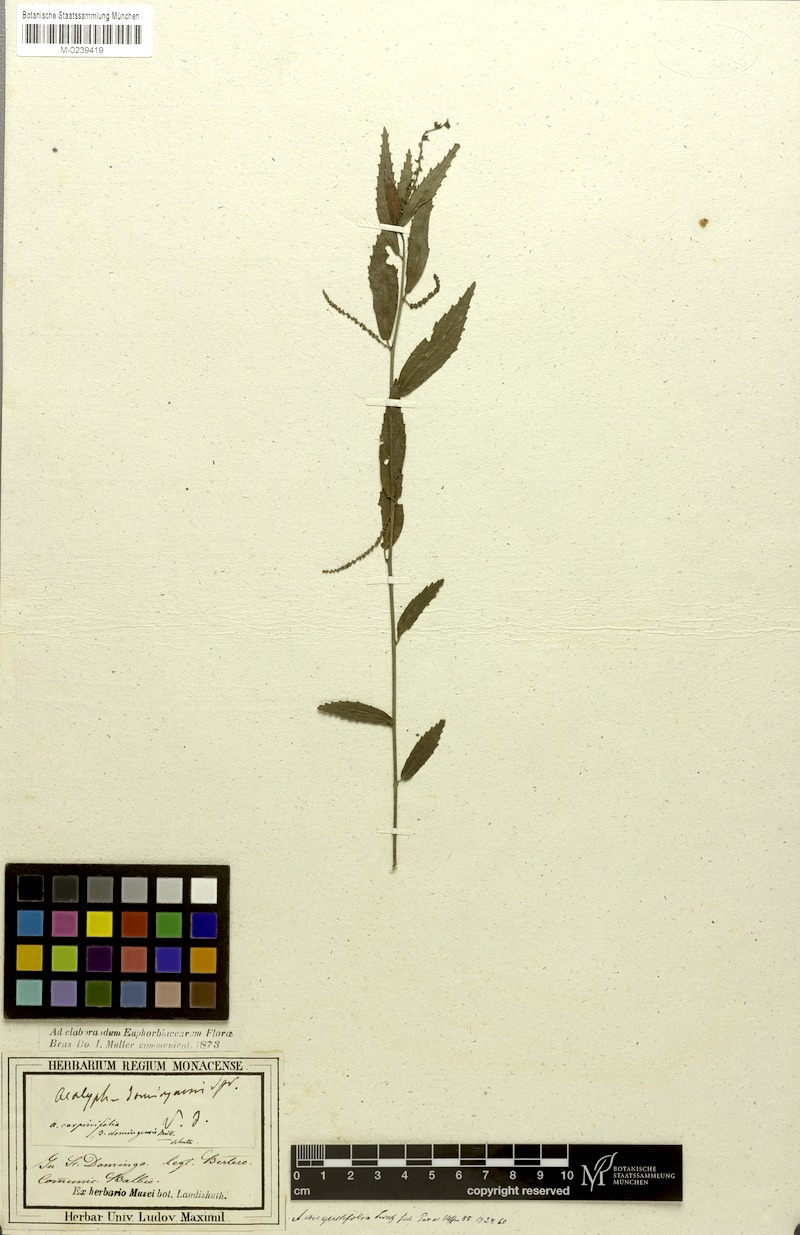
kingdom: Plantae
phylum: Tracheophyta
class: Magnoliopsida
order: Malpighiales
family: Euphorbiaceae
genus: Acalypha
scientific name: Acalypha angustifolia
